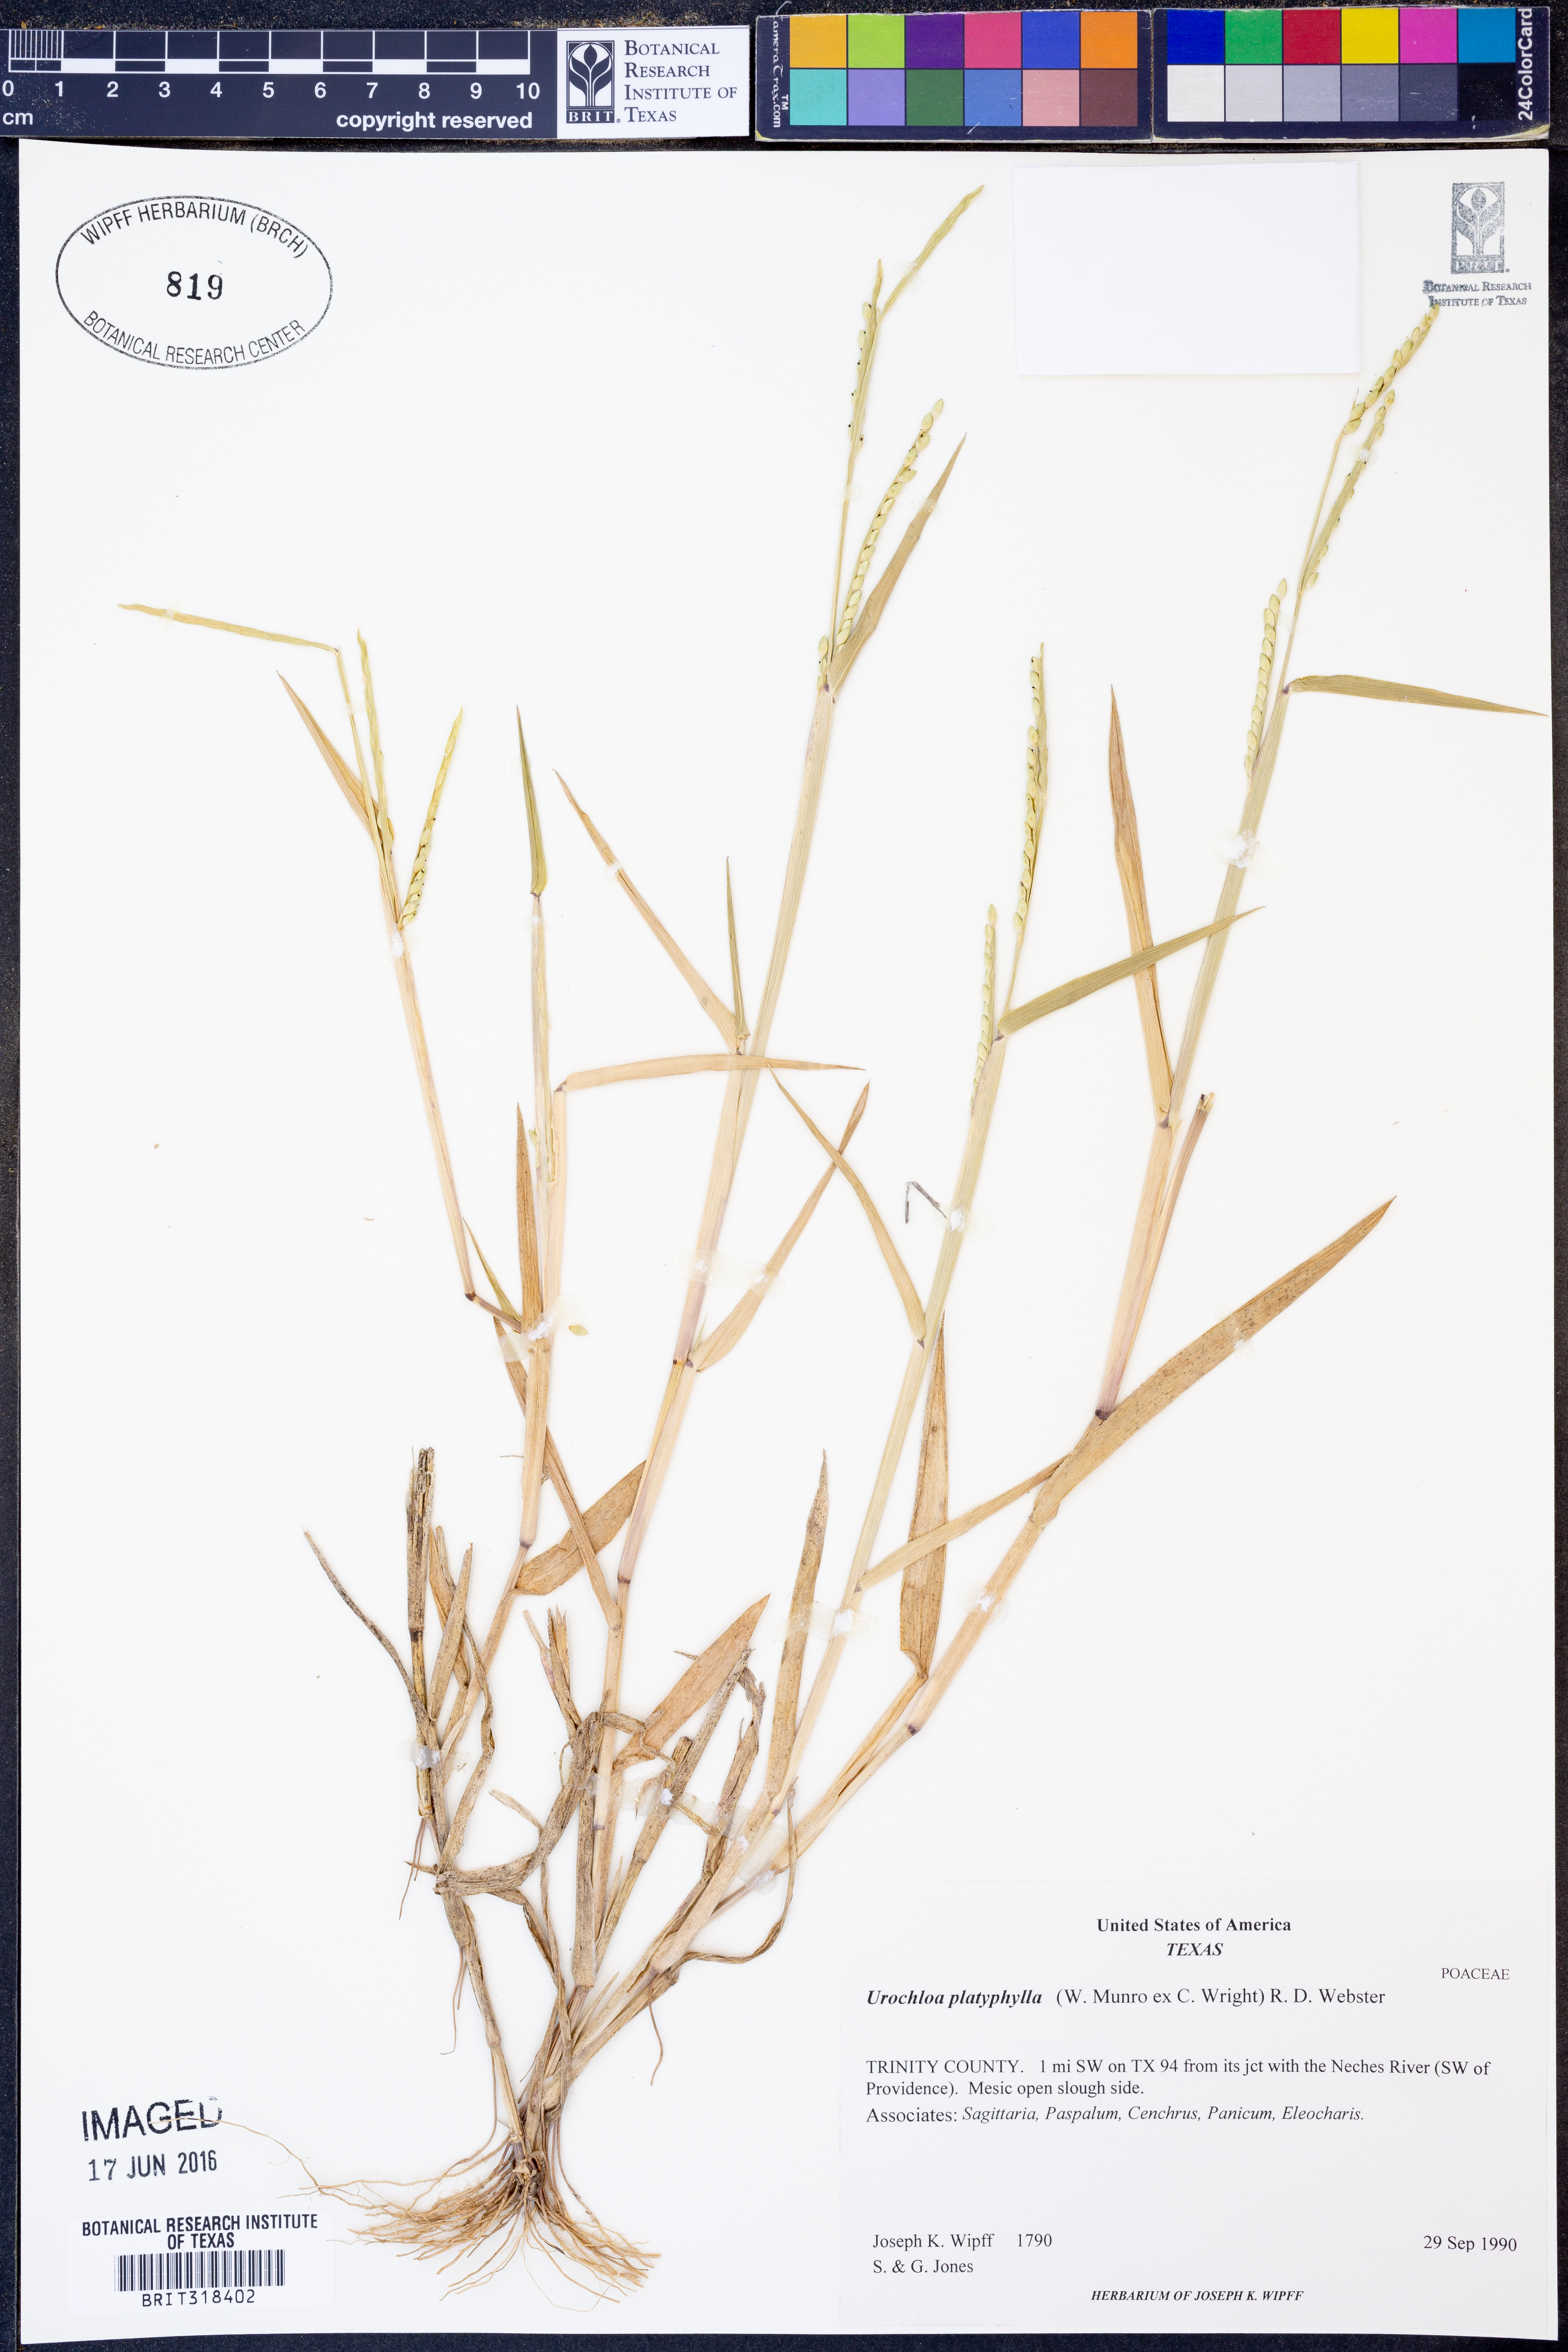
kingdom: Plantae
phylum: Tracheophyta
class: Liliopsida
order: Poales
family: Poaceae
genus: Urochloa
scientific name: Urochloa platyphylla
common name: White para grass
